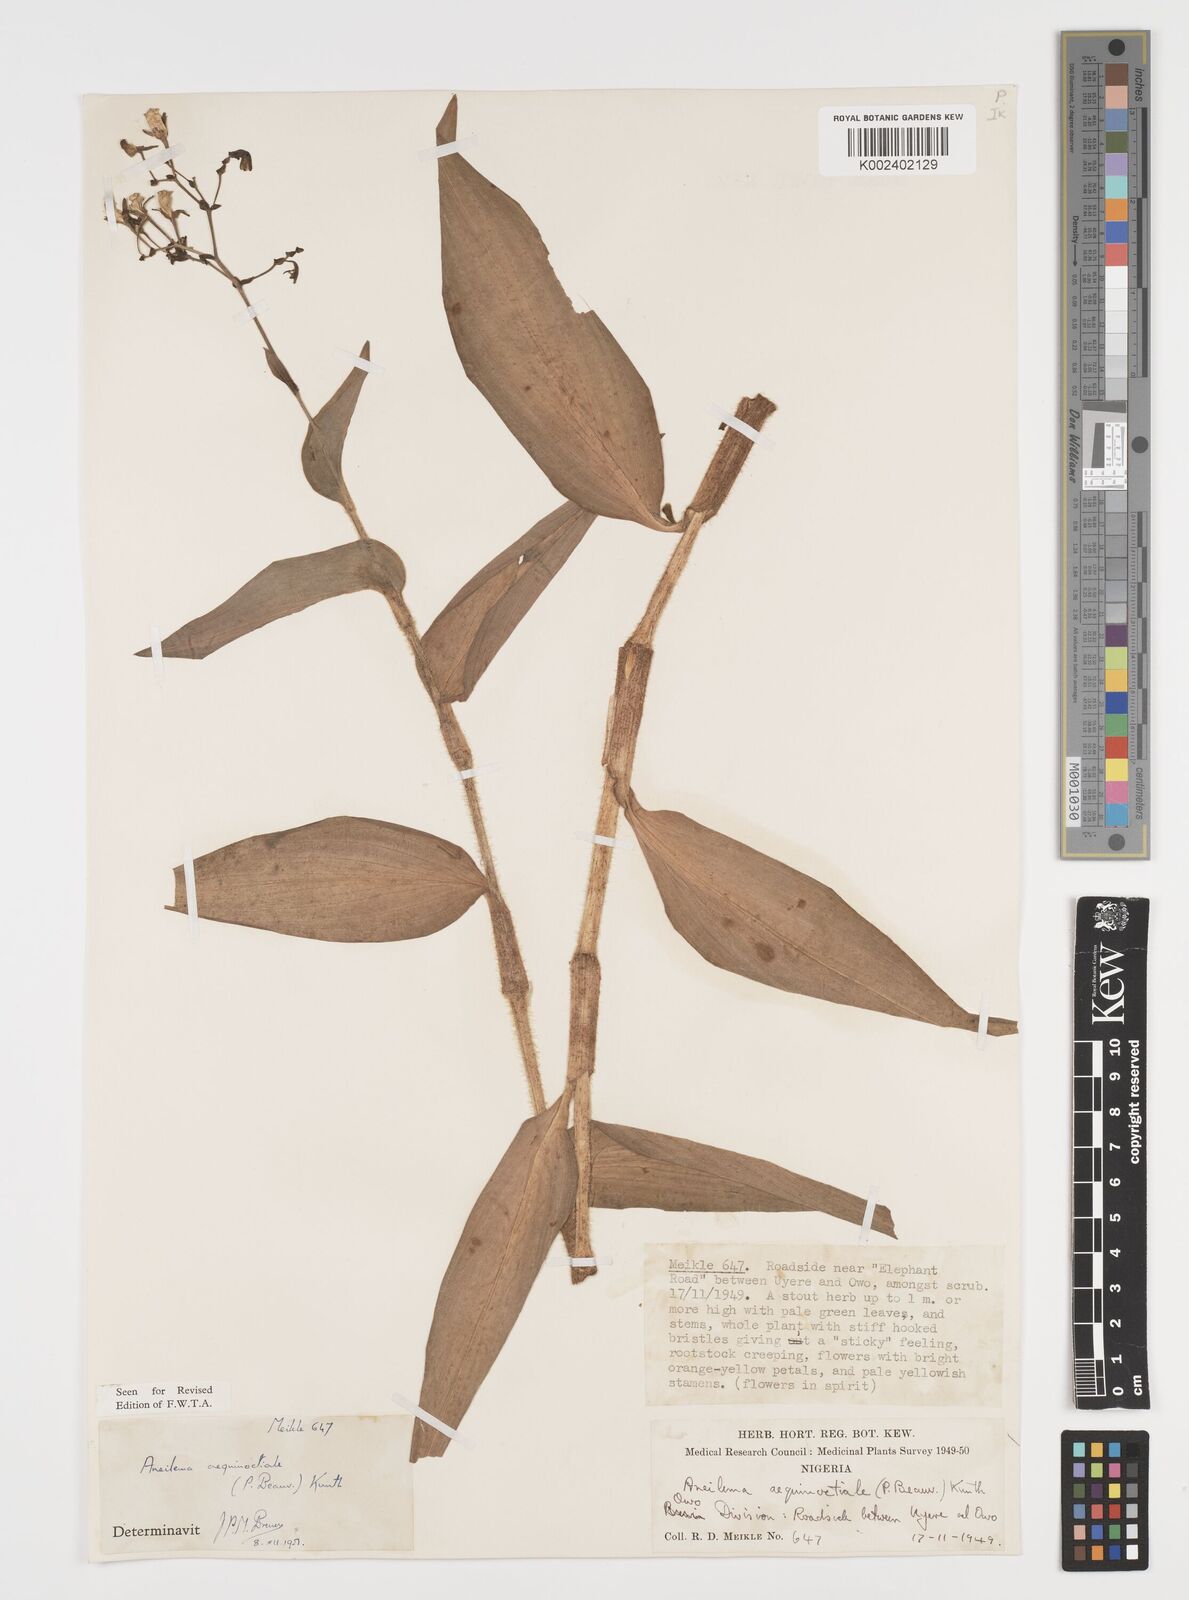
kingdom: Plantae
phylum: Tracheophyta
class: Liliopsida
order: Commelinales
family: Commelinaceae
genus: Aneilema
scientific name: Aneilema aequinoctiale
